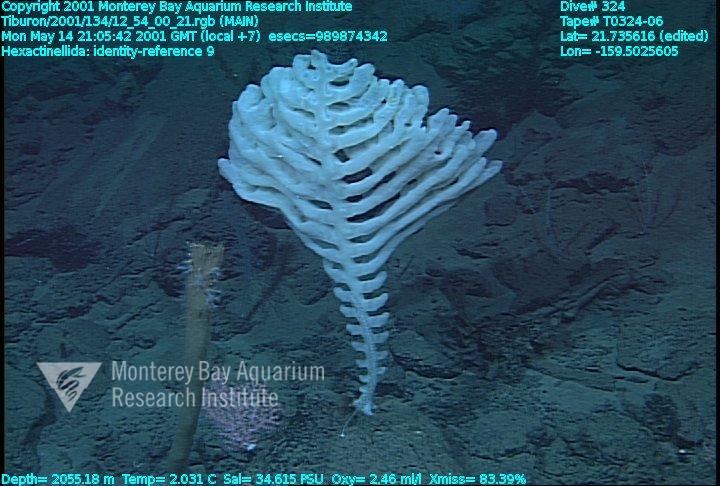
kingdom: Animalia
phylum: Porifera
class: Hexactinellida
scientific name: Hexactinellida
